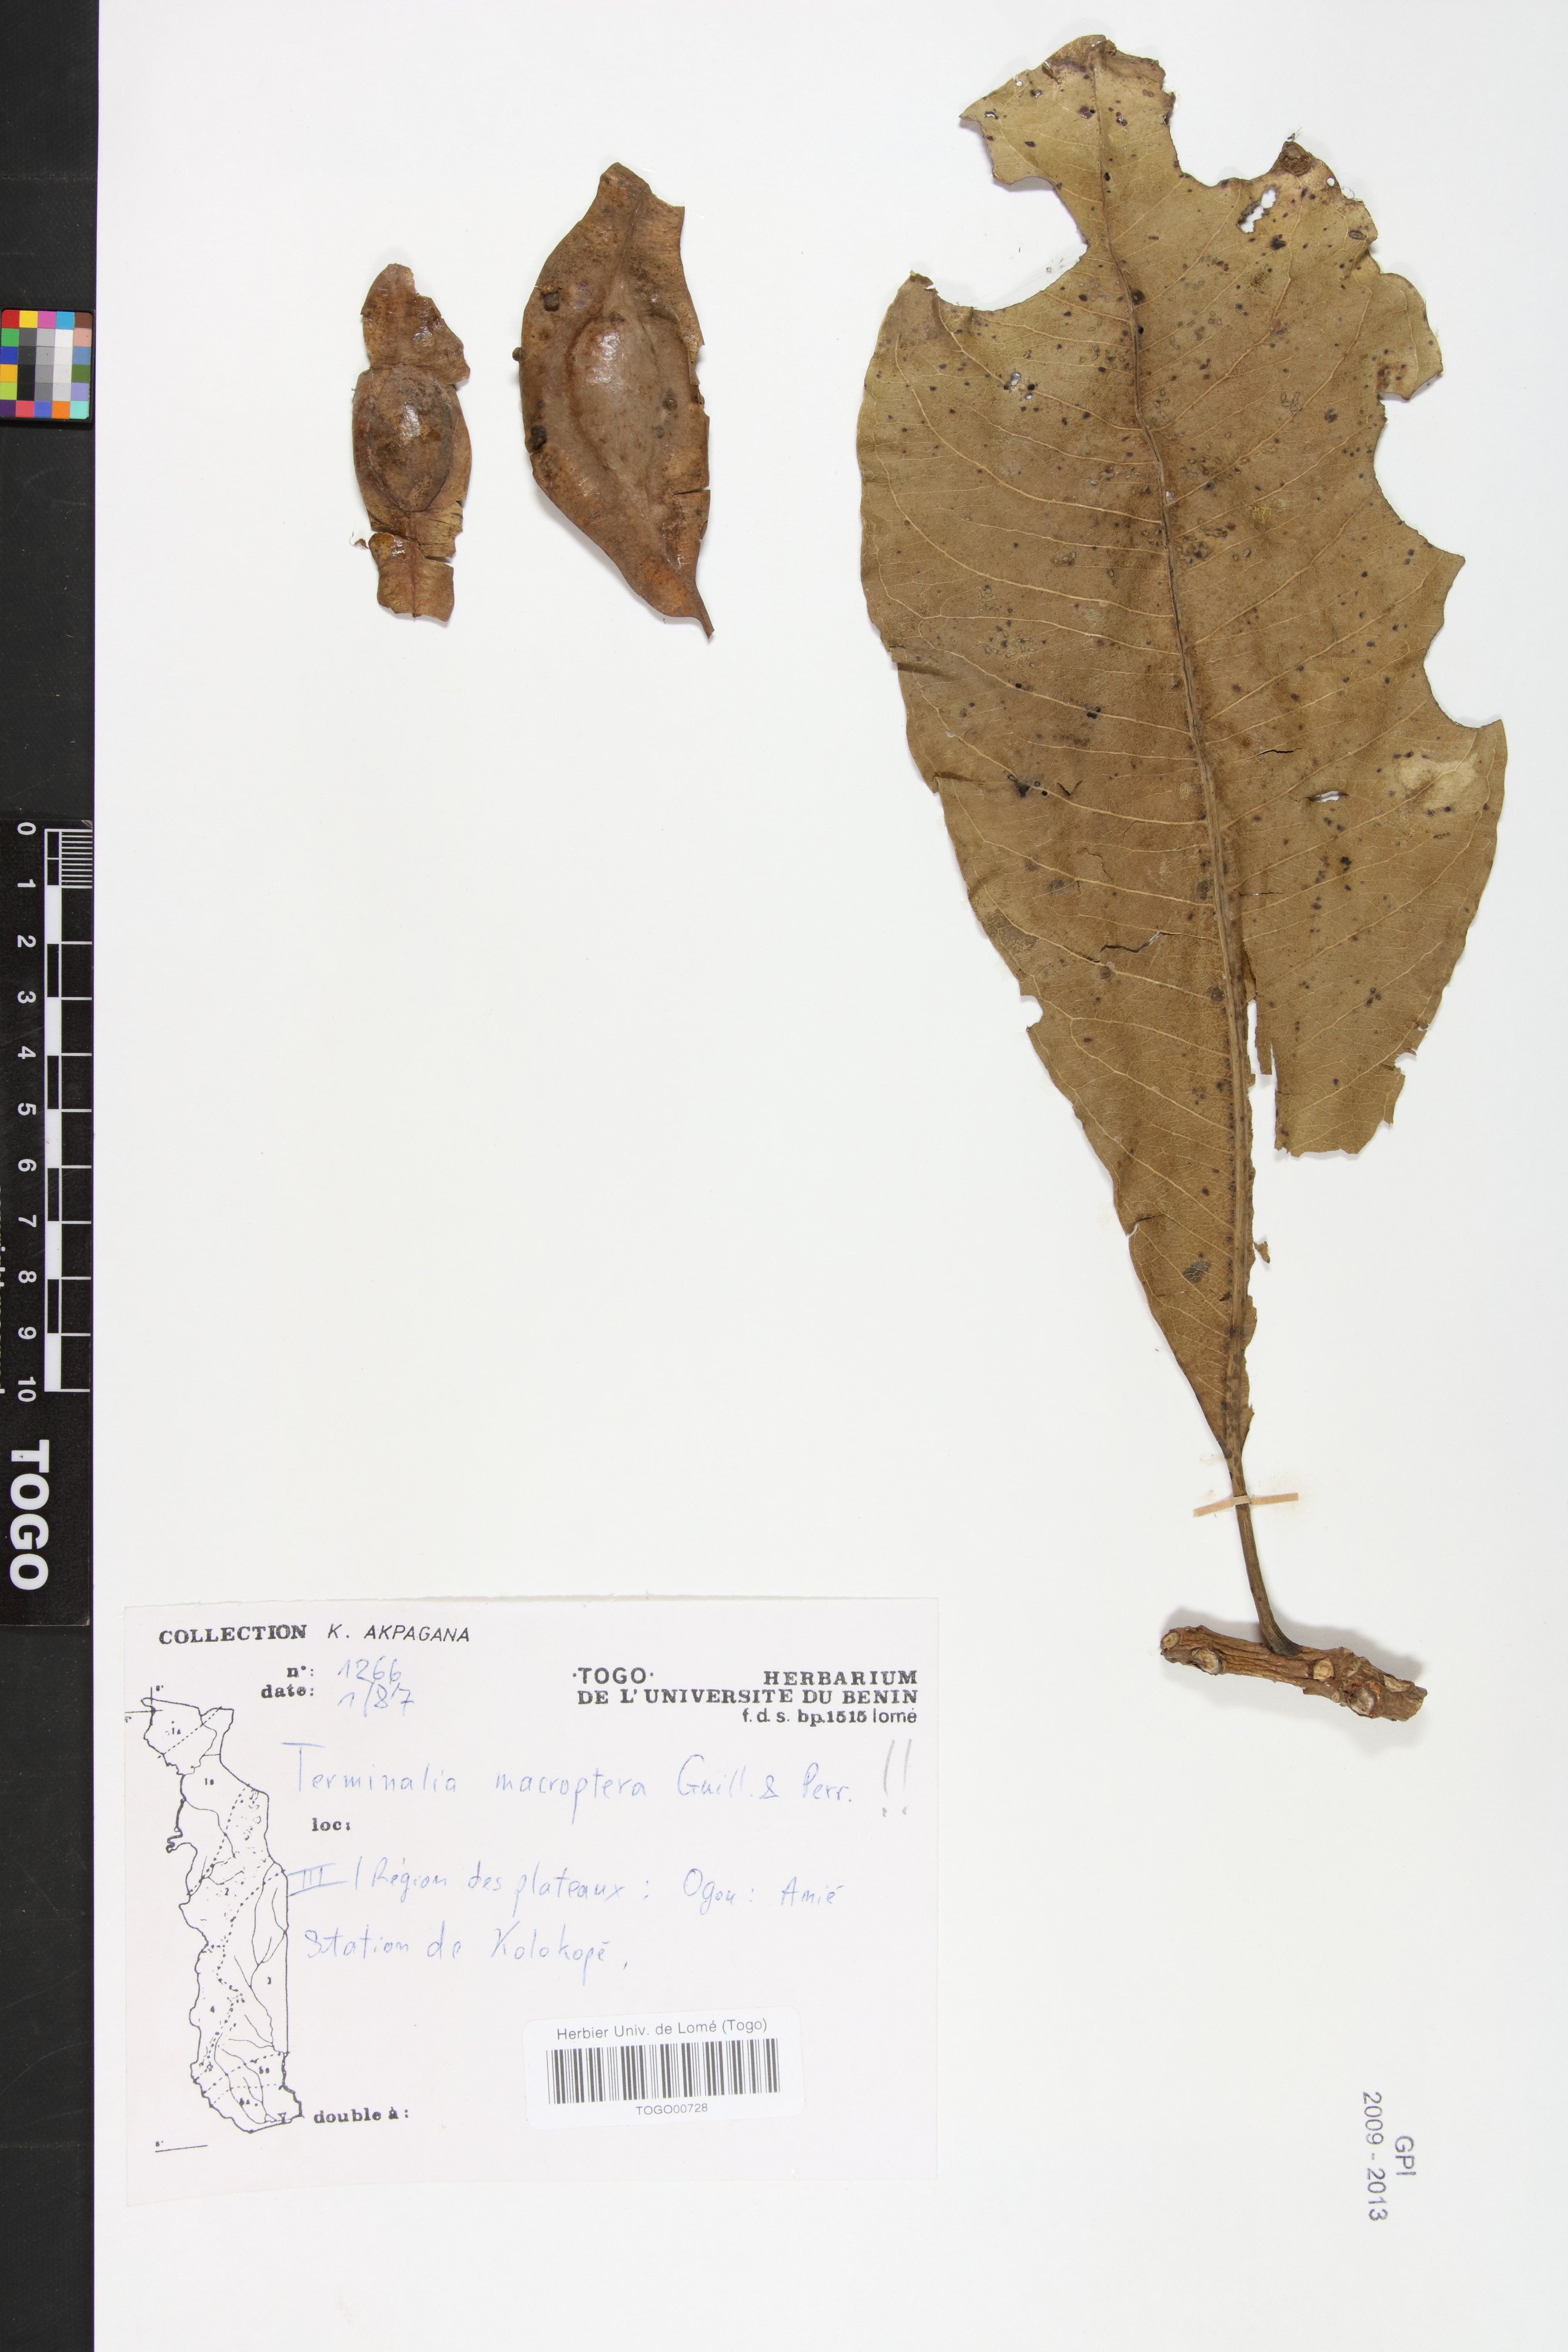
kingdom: Plantae
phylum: Tracheophyta
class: Magnoliopsida
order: Myrtales
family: Combretaceae
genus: Terminalia
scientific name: Terminalia laxiflora
